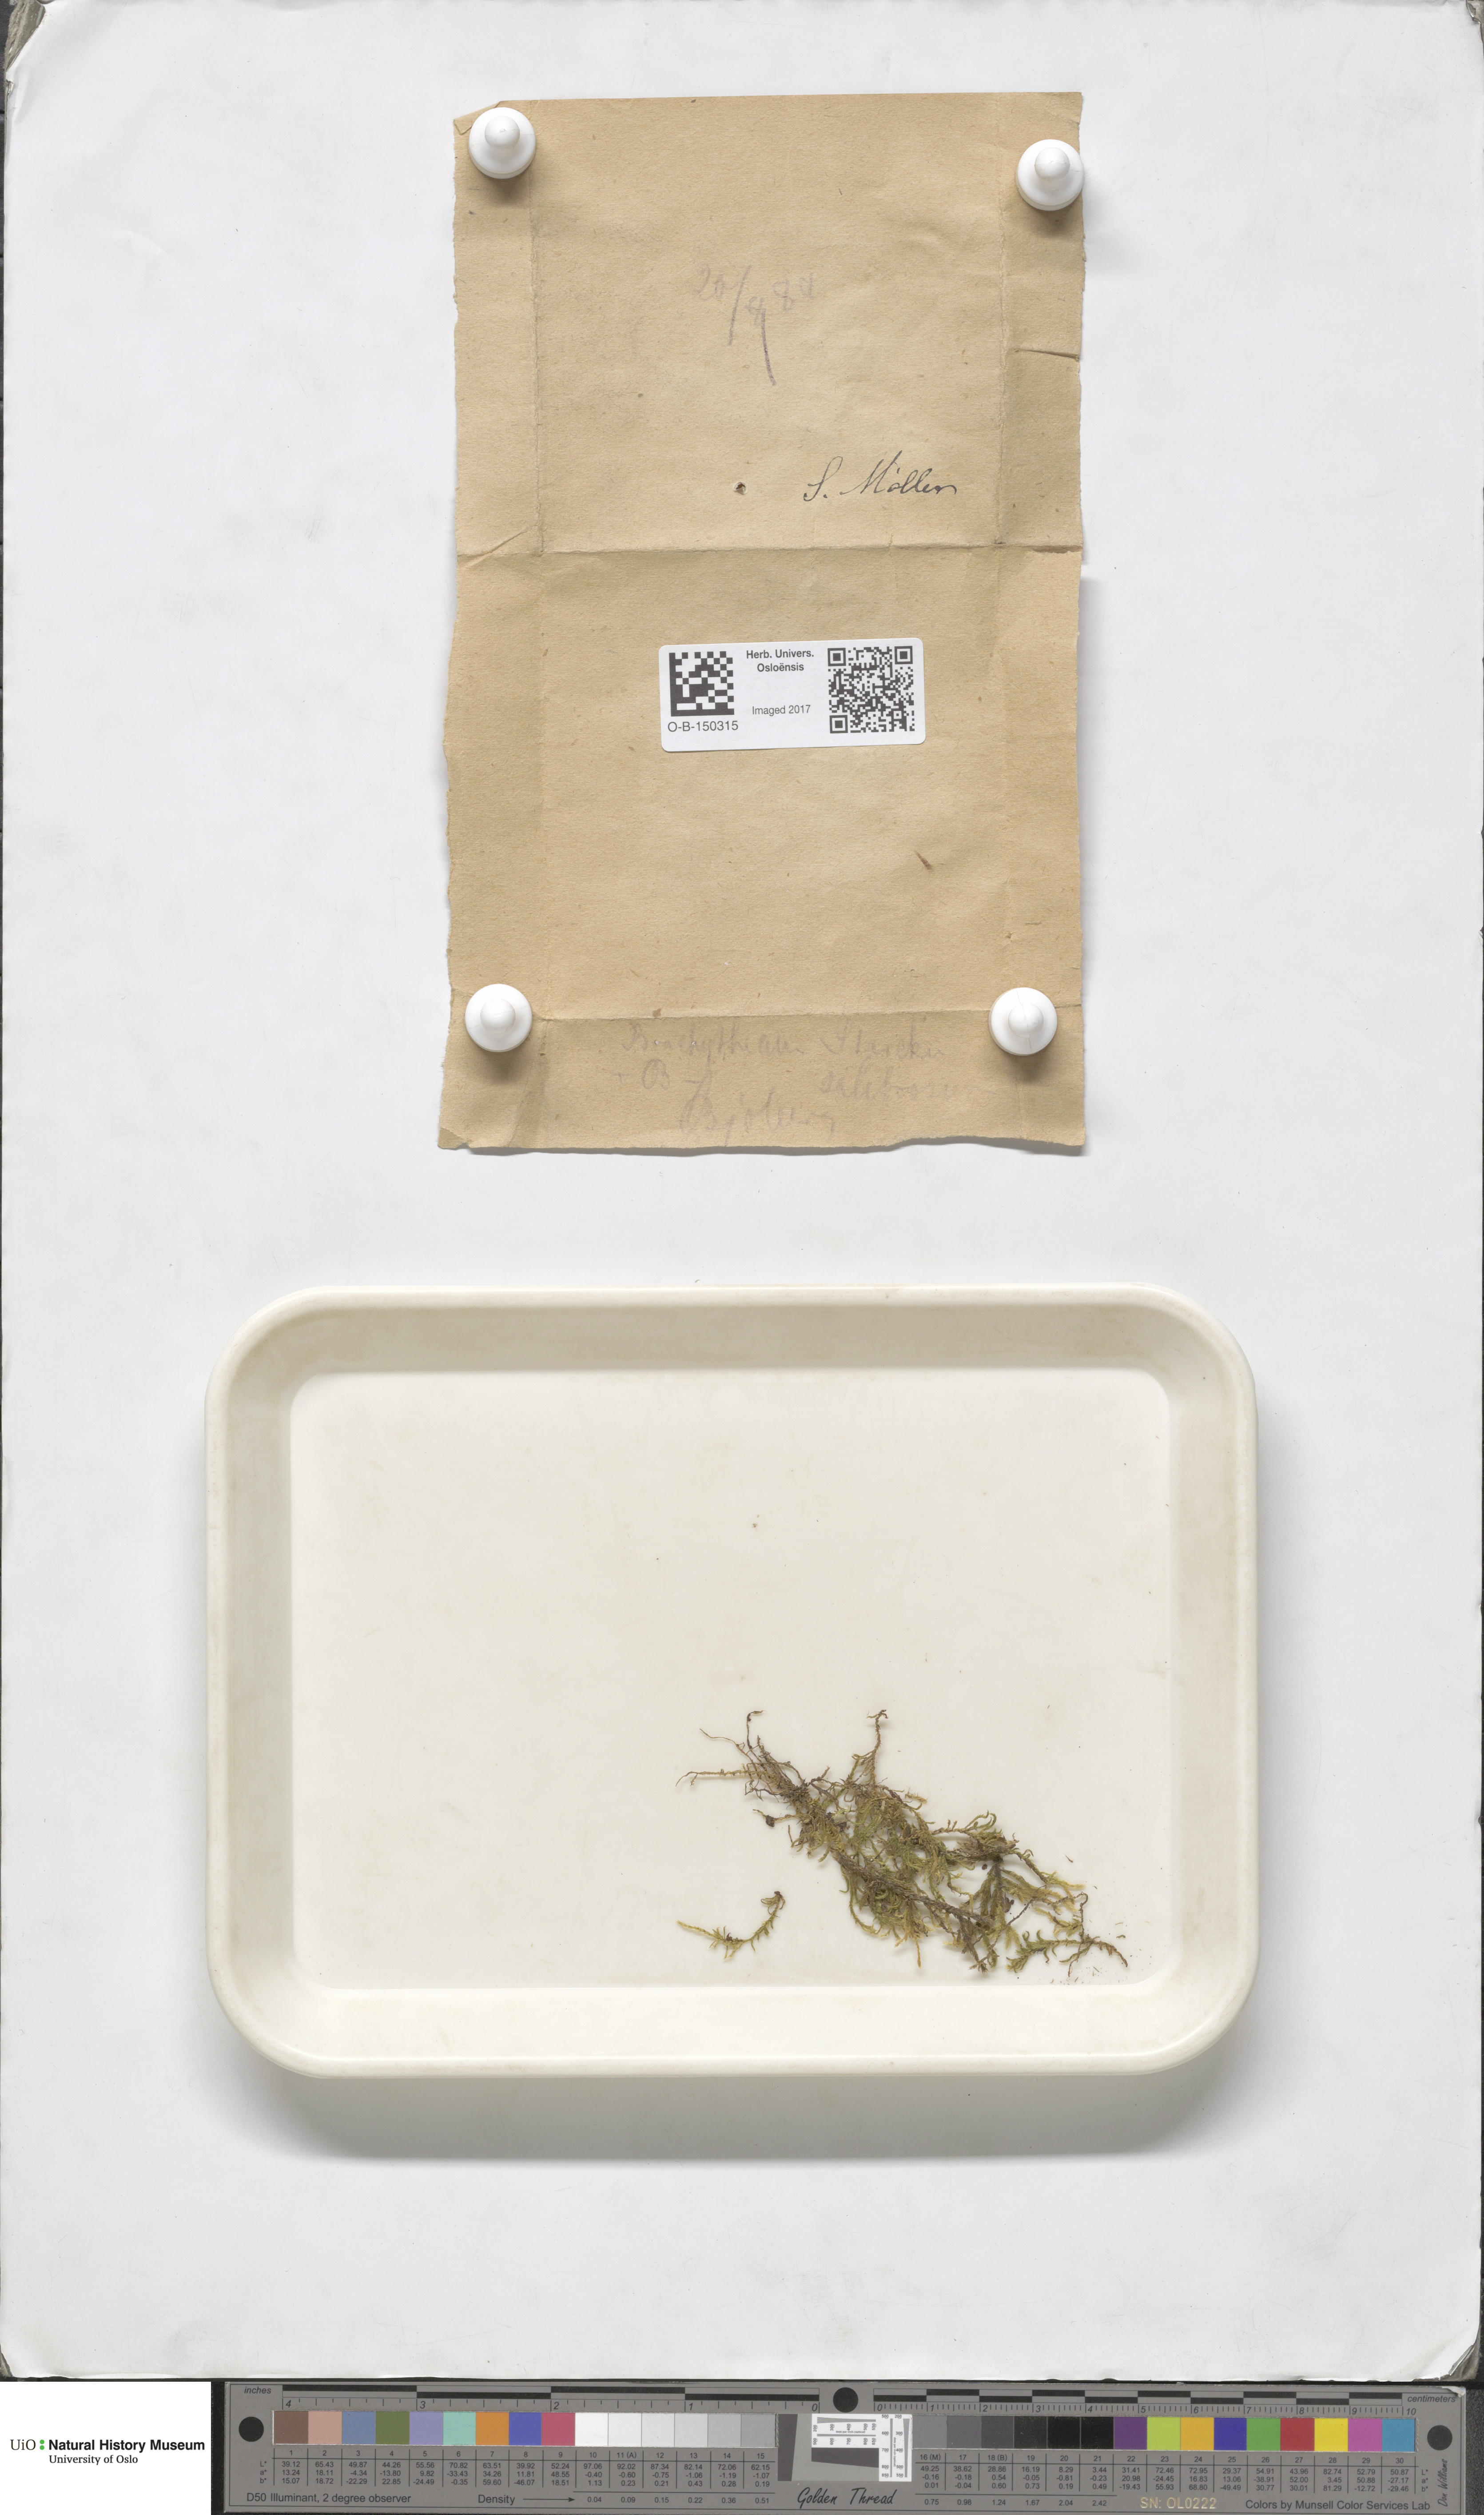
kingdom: Plantae
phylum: Bryophyta
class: Bryopsida
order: Hypnales
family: Brachytheciaceae
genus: Brachythecium
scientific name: Brachythecium salebrosum
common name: Smooth-stalk feather-moss
